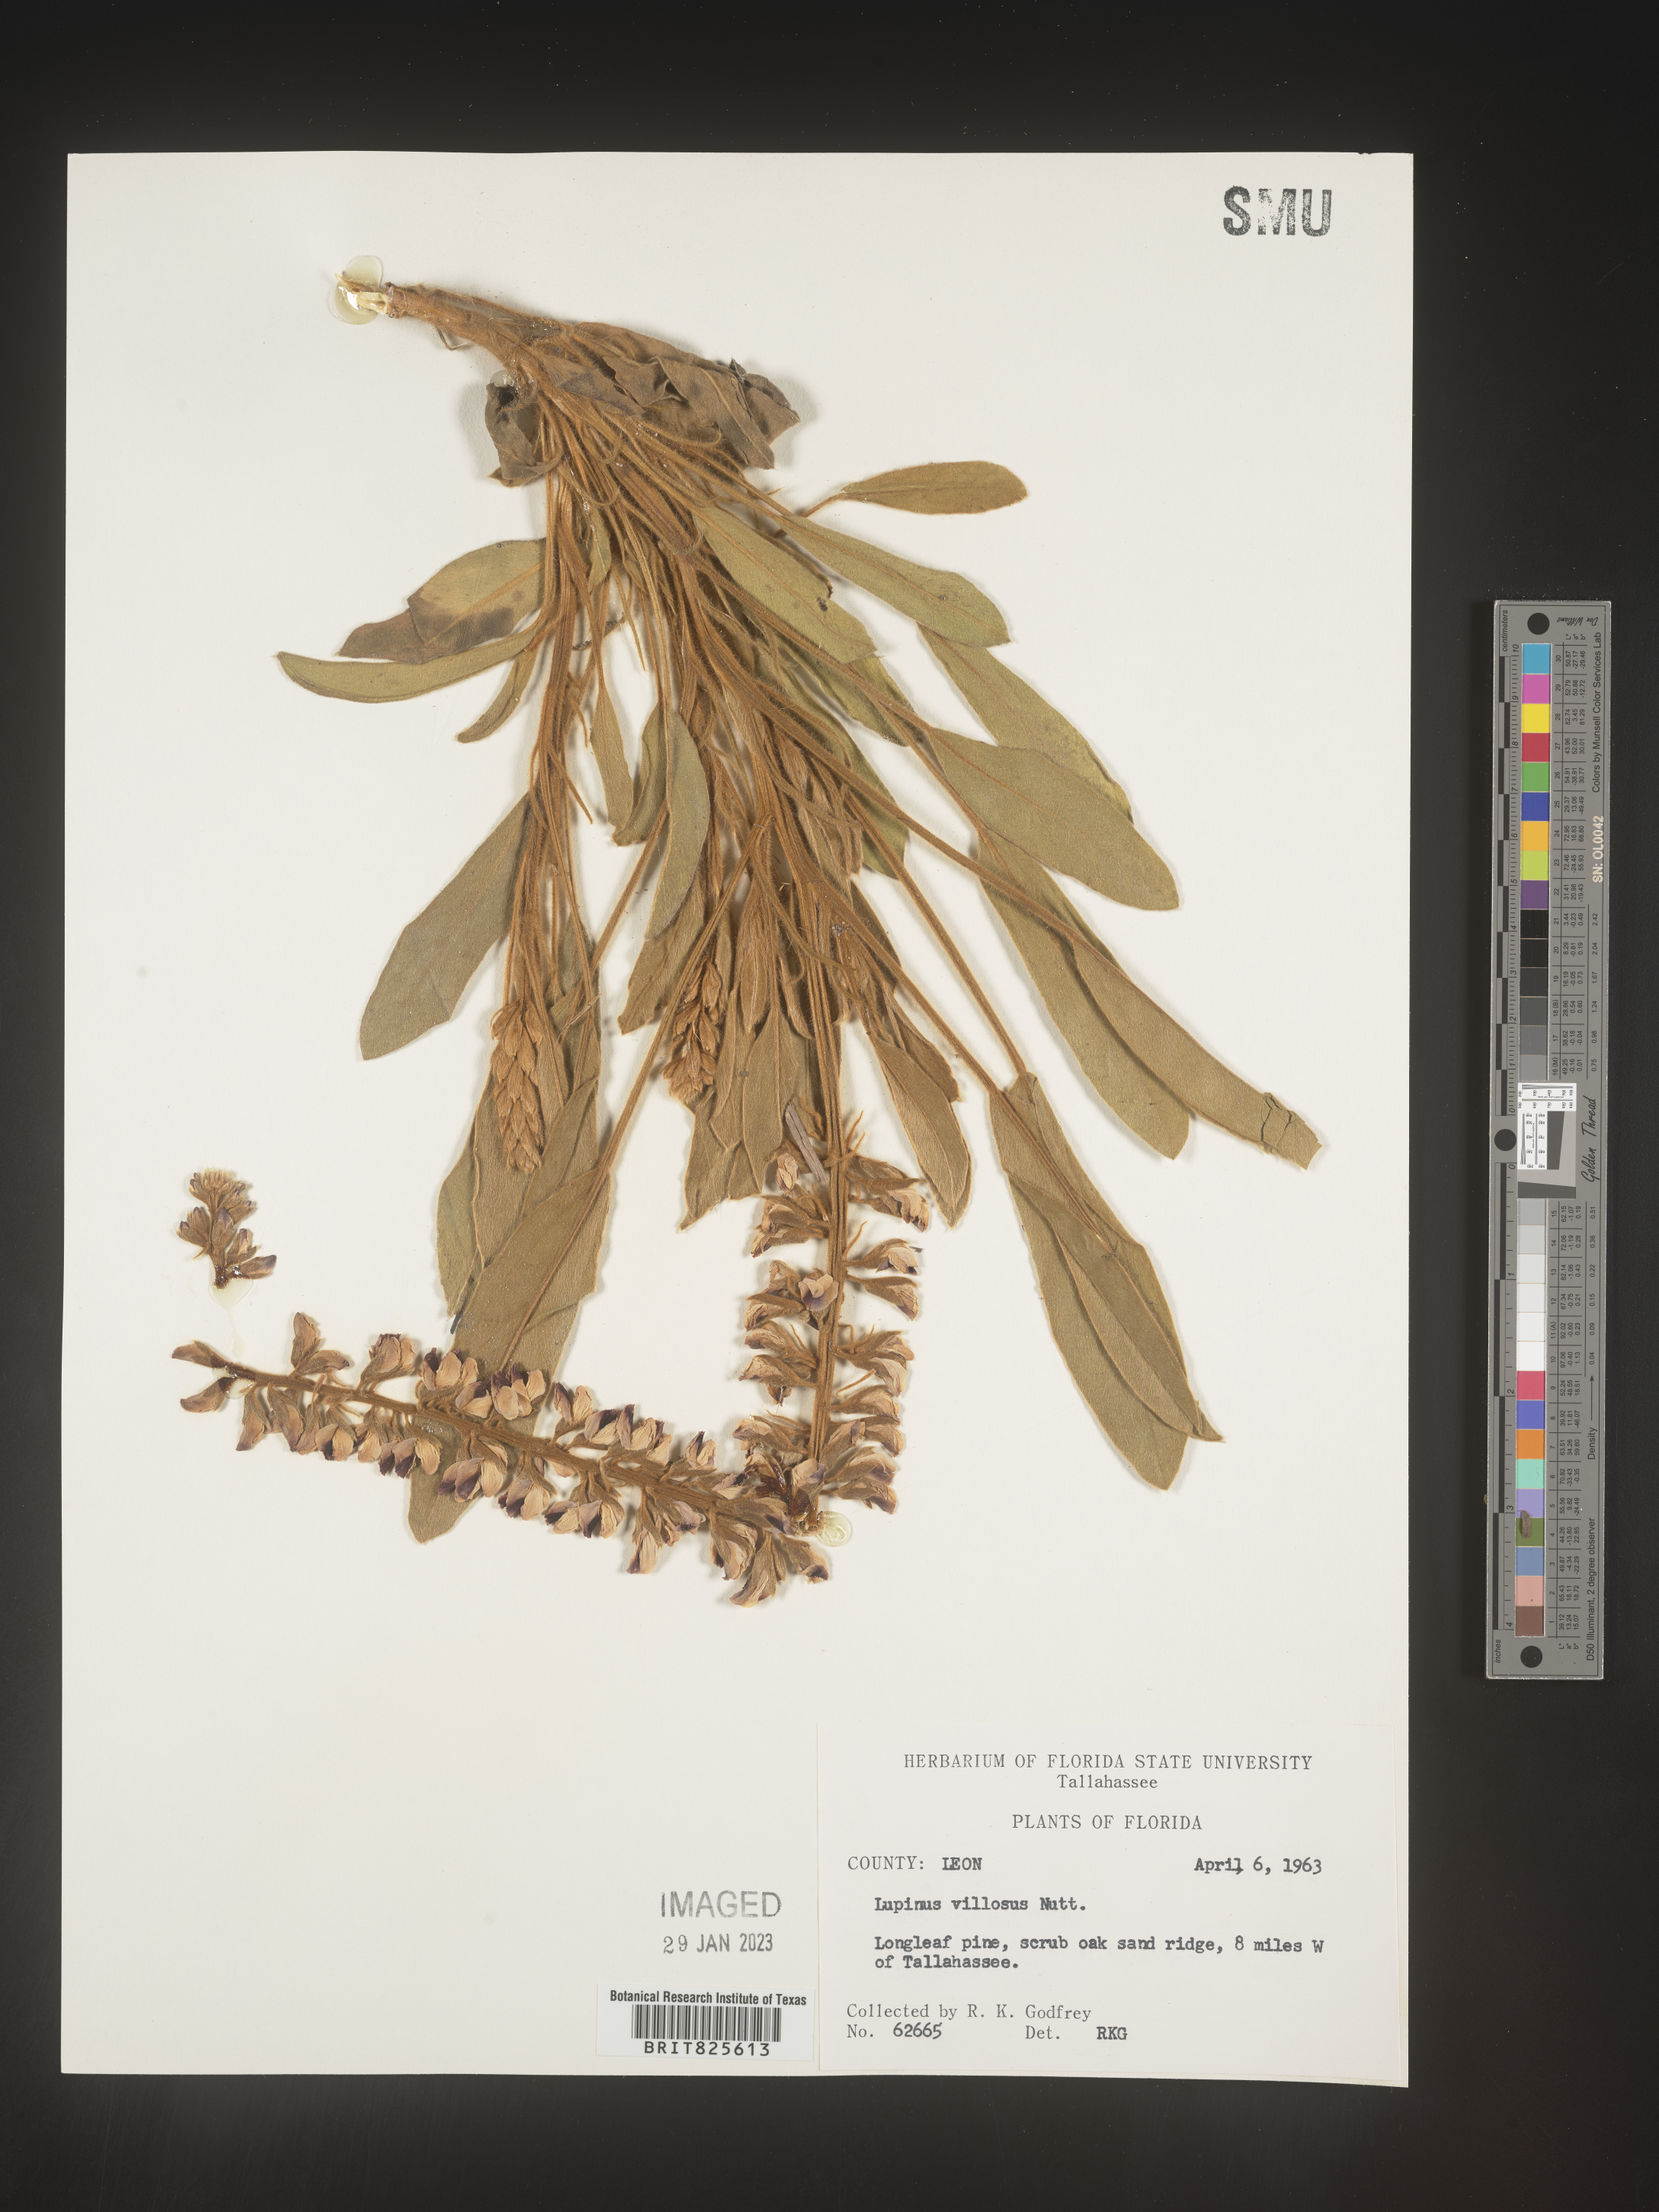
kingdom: Plantae
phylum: Tracheophyta
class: Magnoliopsida
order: Fabales
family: Fabaceae
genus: Lupinus
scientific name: Lupinus villosus
